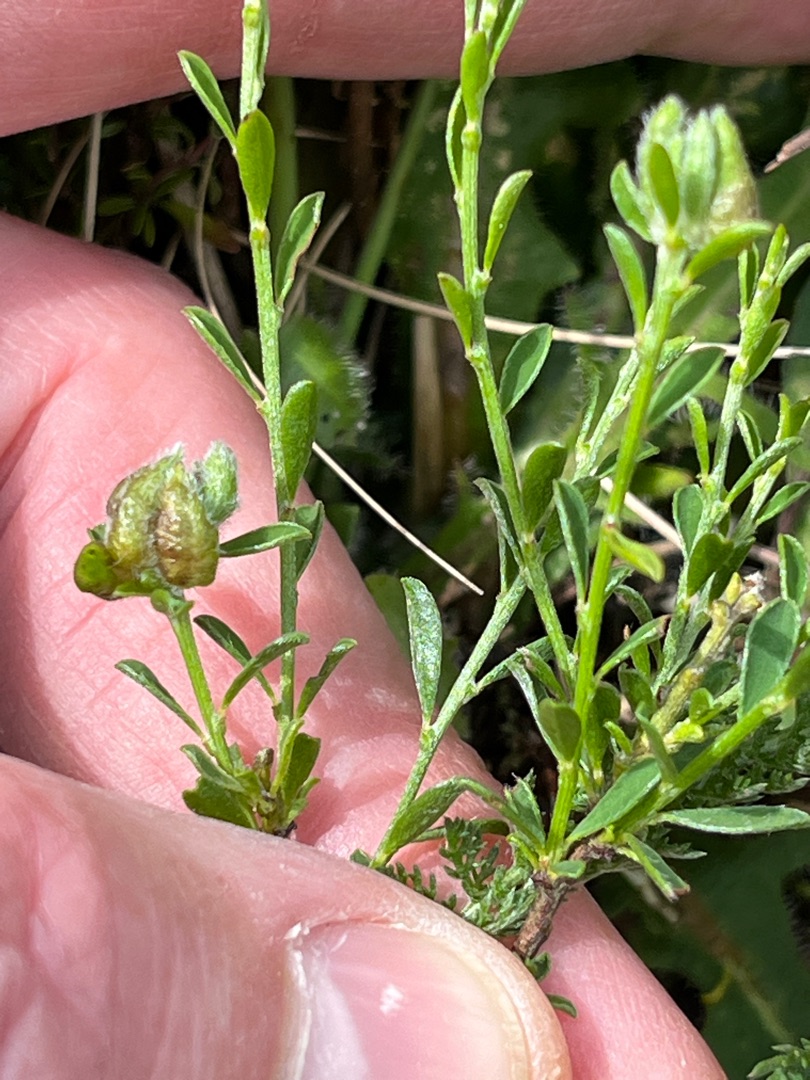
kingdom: Animalia
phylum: Arthropoda
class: Insecta
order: Diptera
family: Cecidomyiidae
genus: Jaapiella
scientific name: Jaapiella genistamtorquens
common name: Pink vissegalmyg
